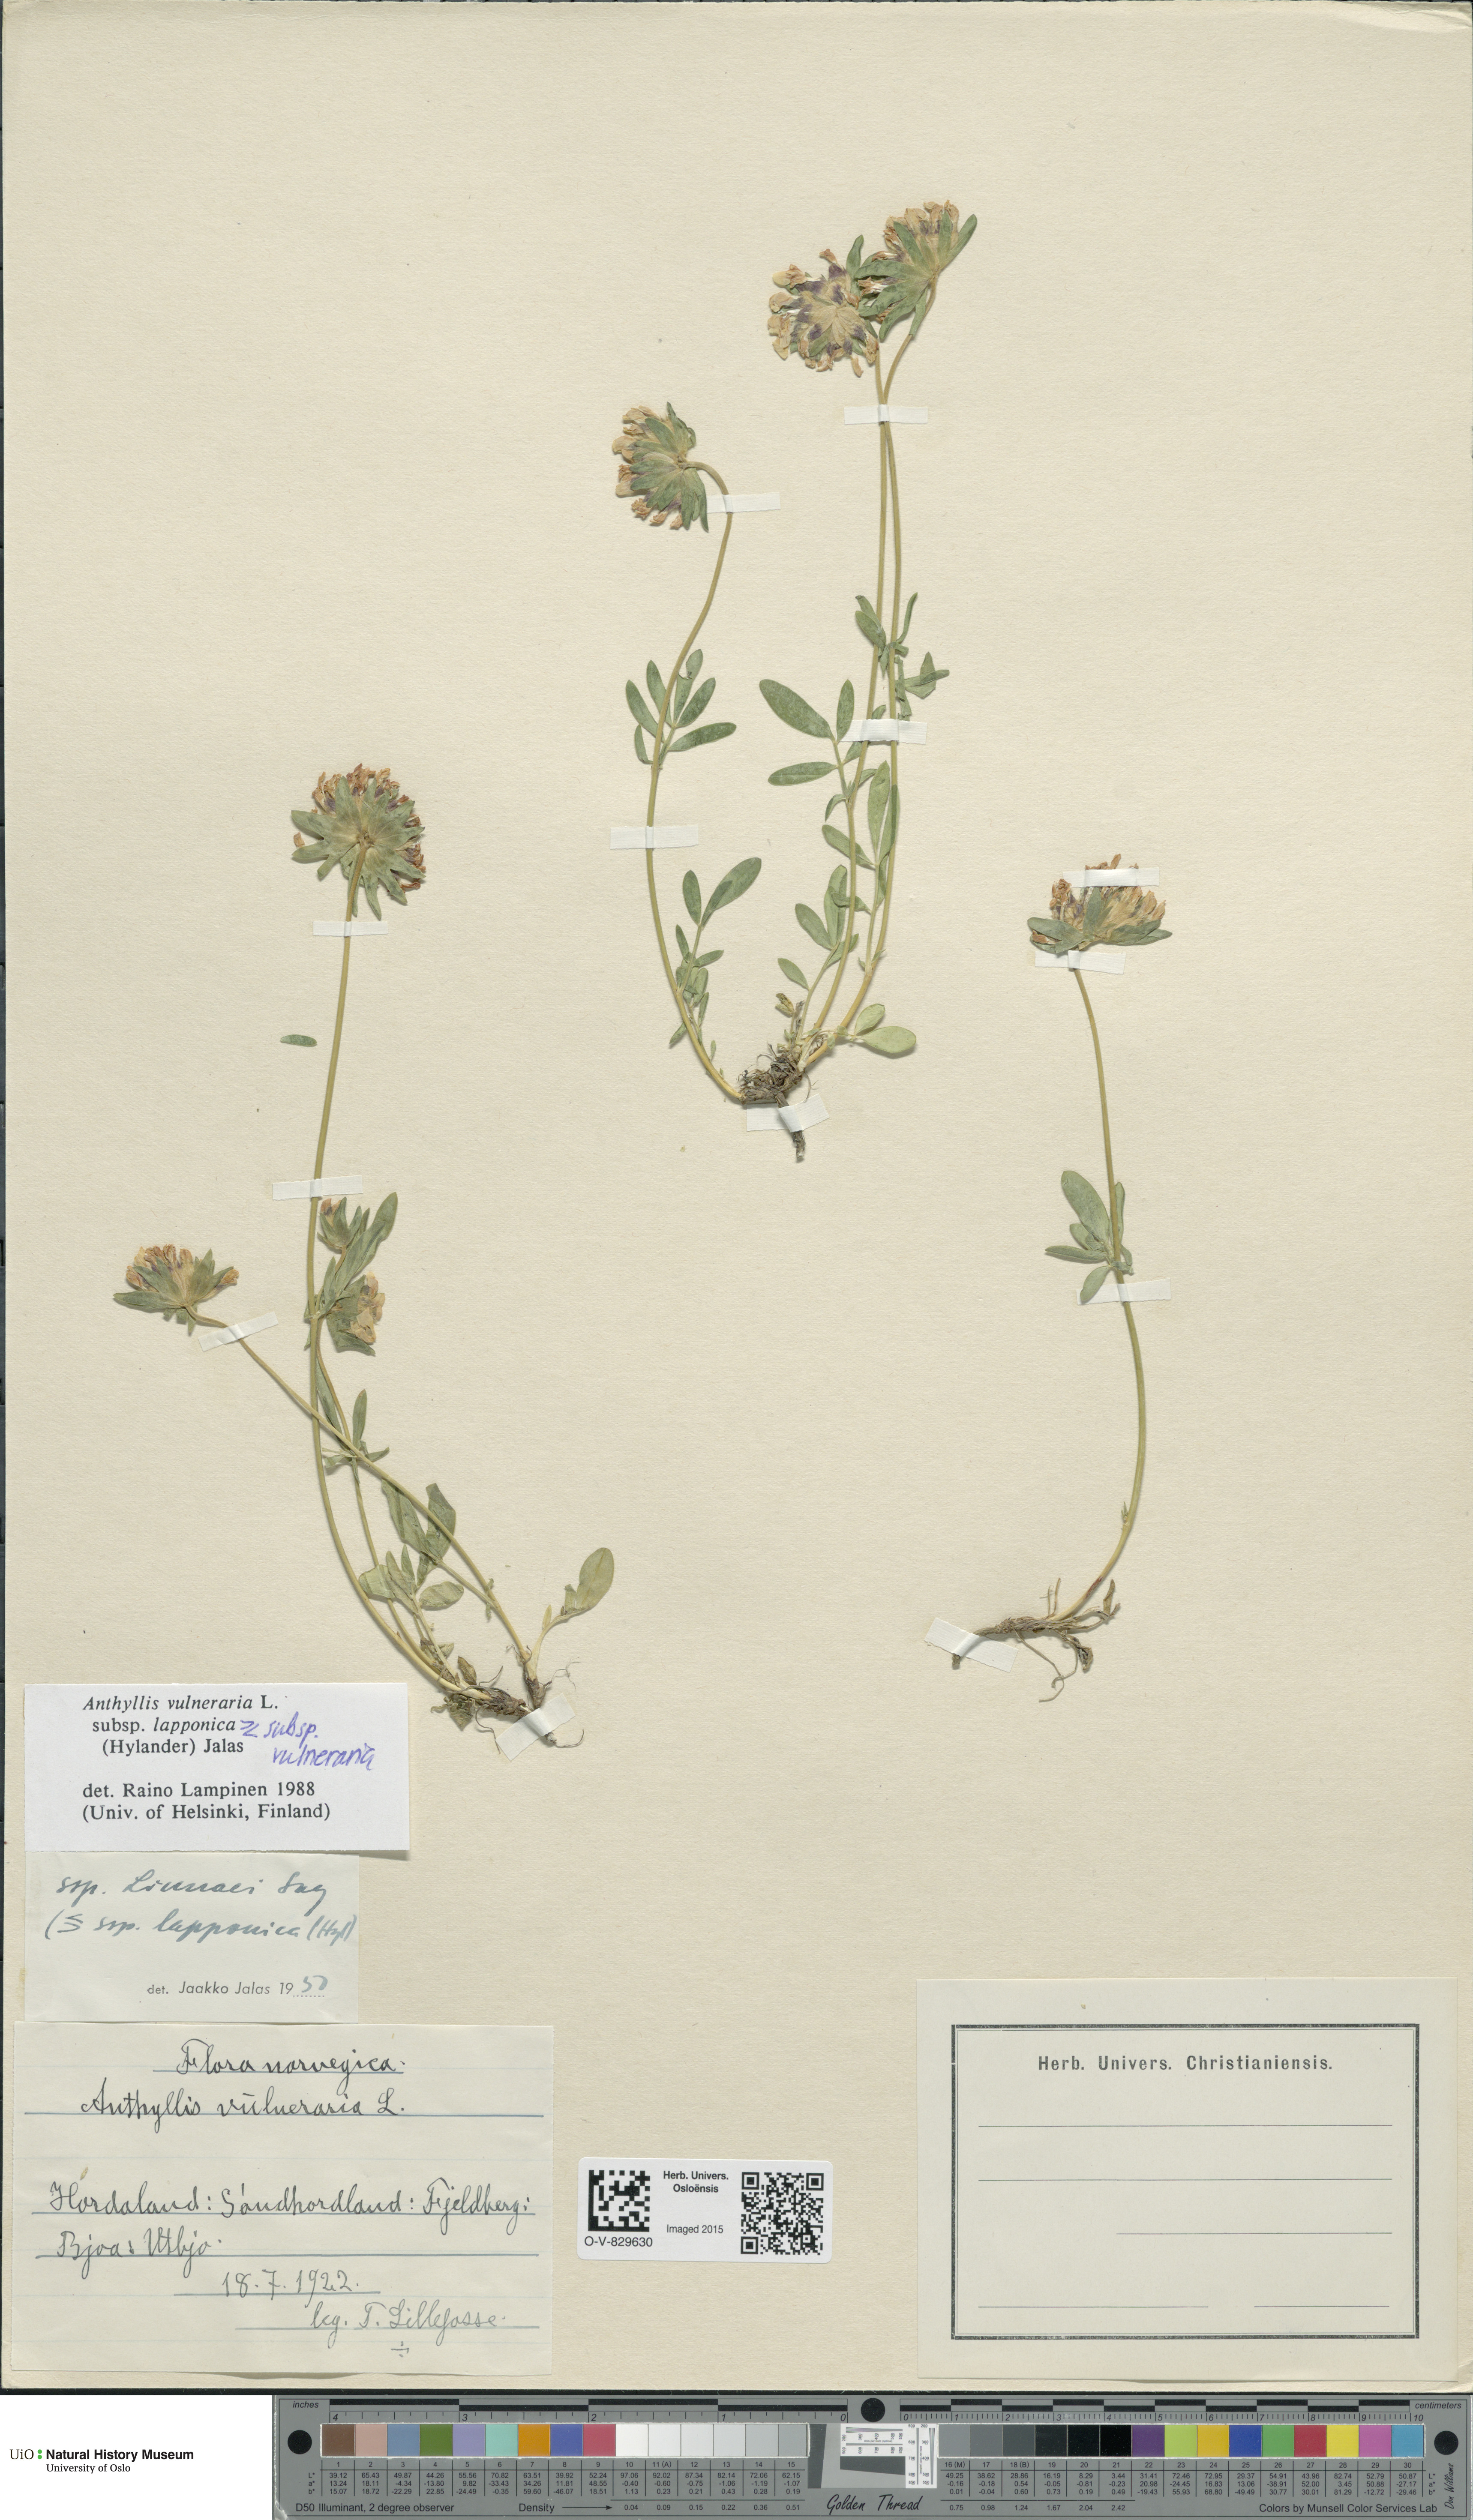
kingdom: Plantae
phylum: Tracheophyta
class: Magnoliopsida
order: Fabales
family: Fabaceae
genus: Anthyllis
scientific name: Anthyllis
